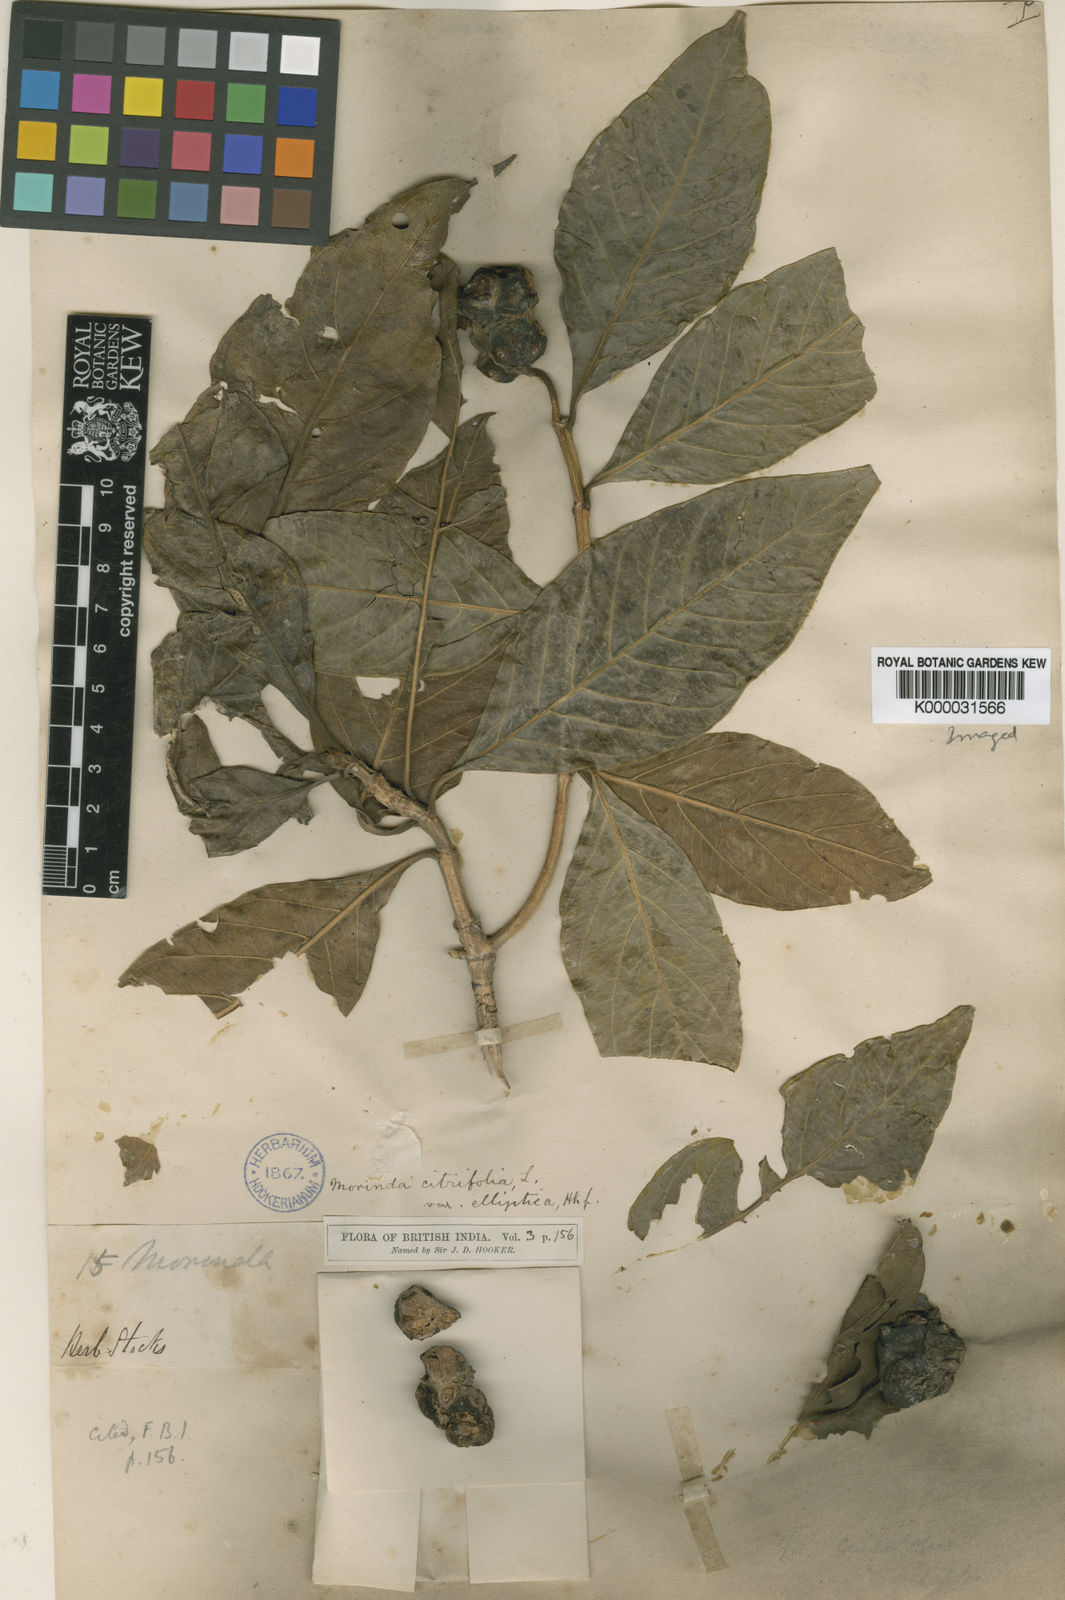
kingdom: Plantae
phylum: Tracheophyta
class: Liliopsida
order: Alismatales
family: Araceae
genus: Ariopsis
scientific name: Ariopsis peltata
